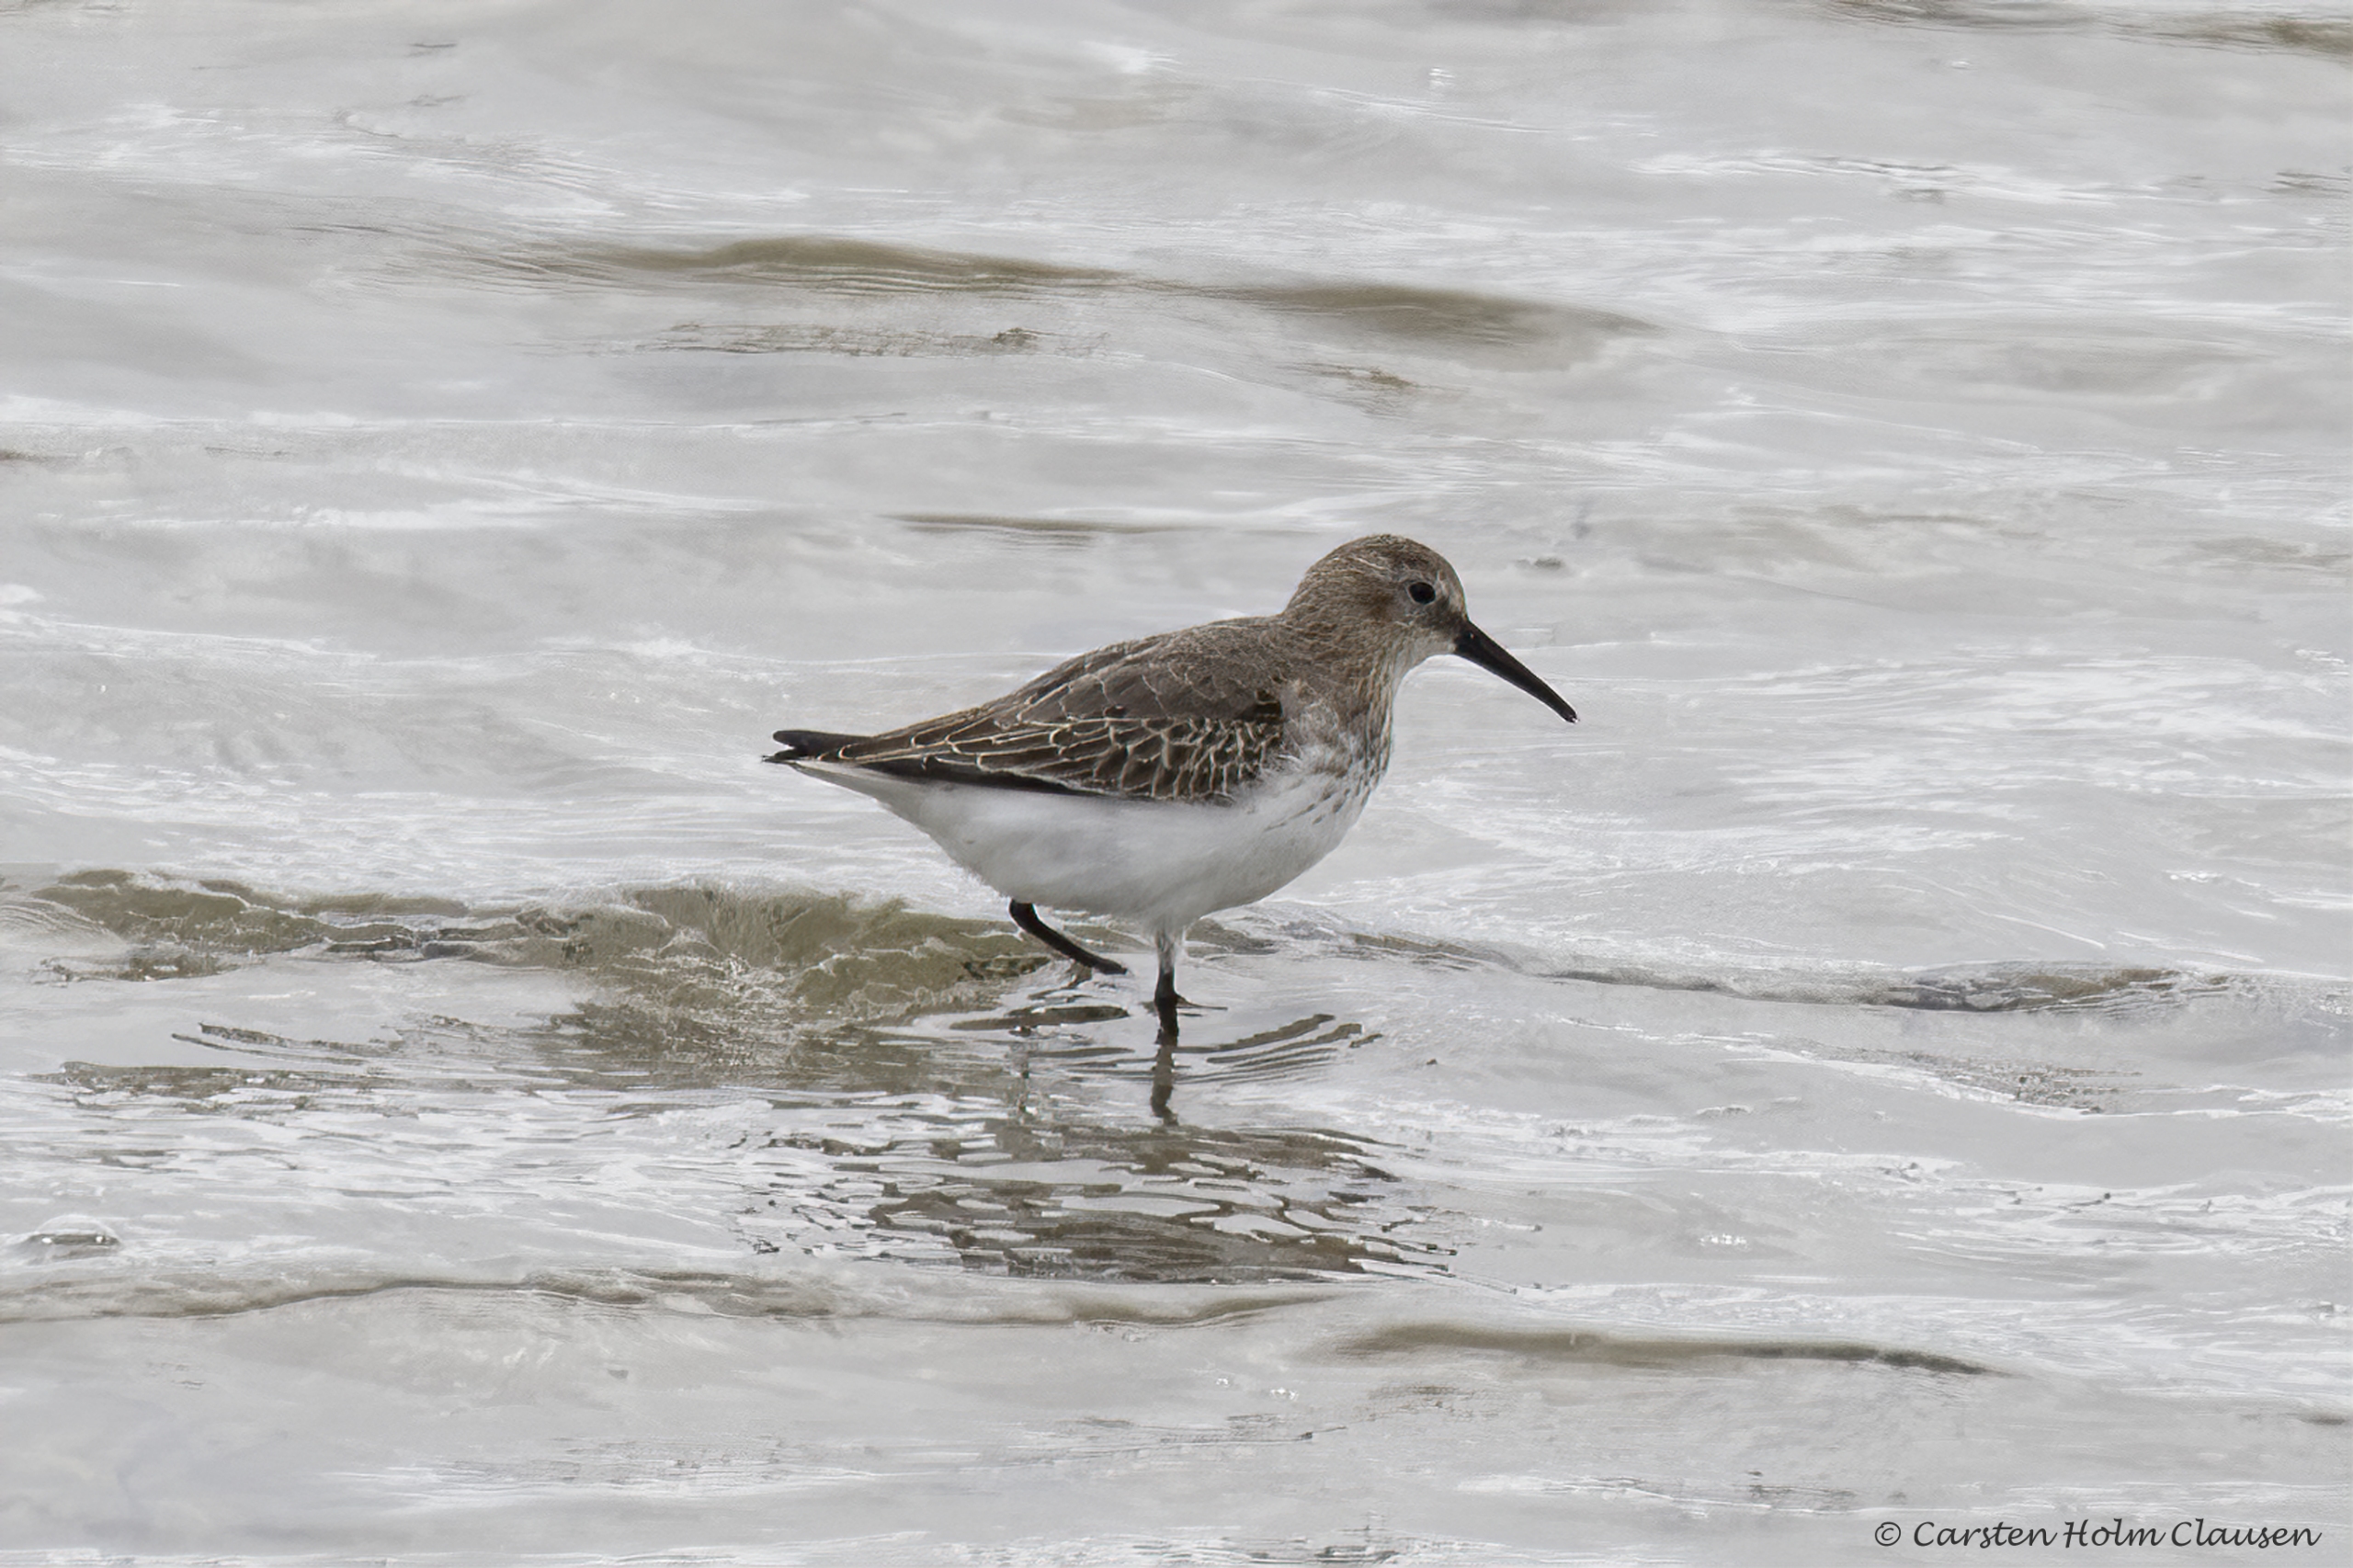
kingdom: Animalia
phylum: Chordata
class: Aves
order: Charadriiformes
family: Scolopacidae
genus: Calidris
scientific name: Calidris alpina
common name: Almindelig ryle
